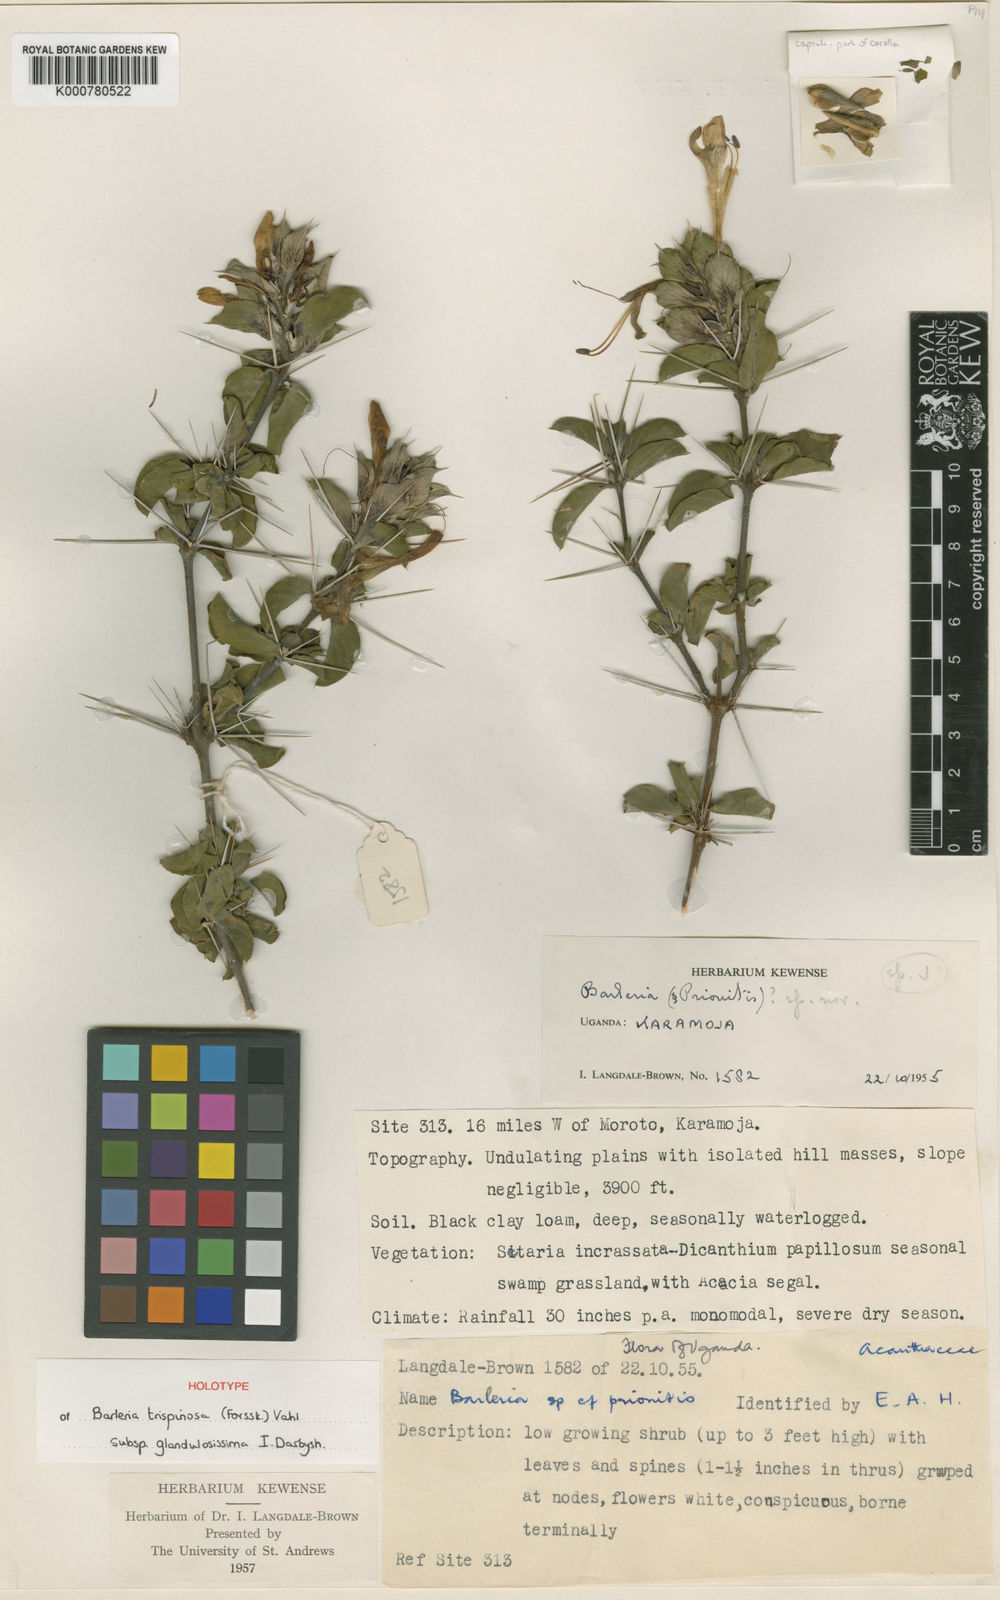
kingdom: Plantae
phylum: Tracheophyta
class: Magnoliopsida
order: Lamiales
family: Acanthaceae
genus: Barleria
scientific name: Barleria trispinosa
